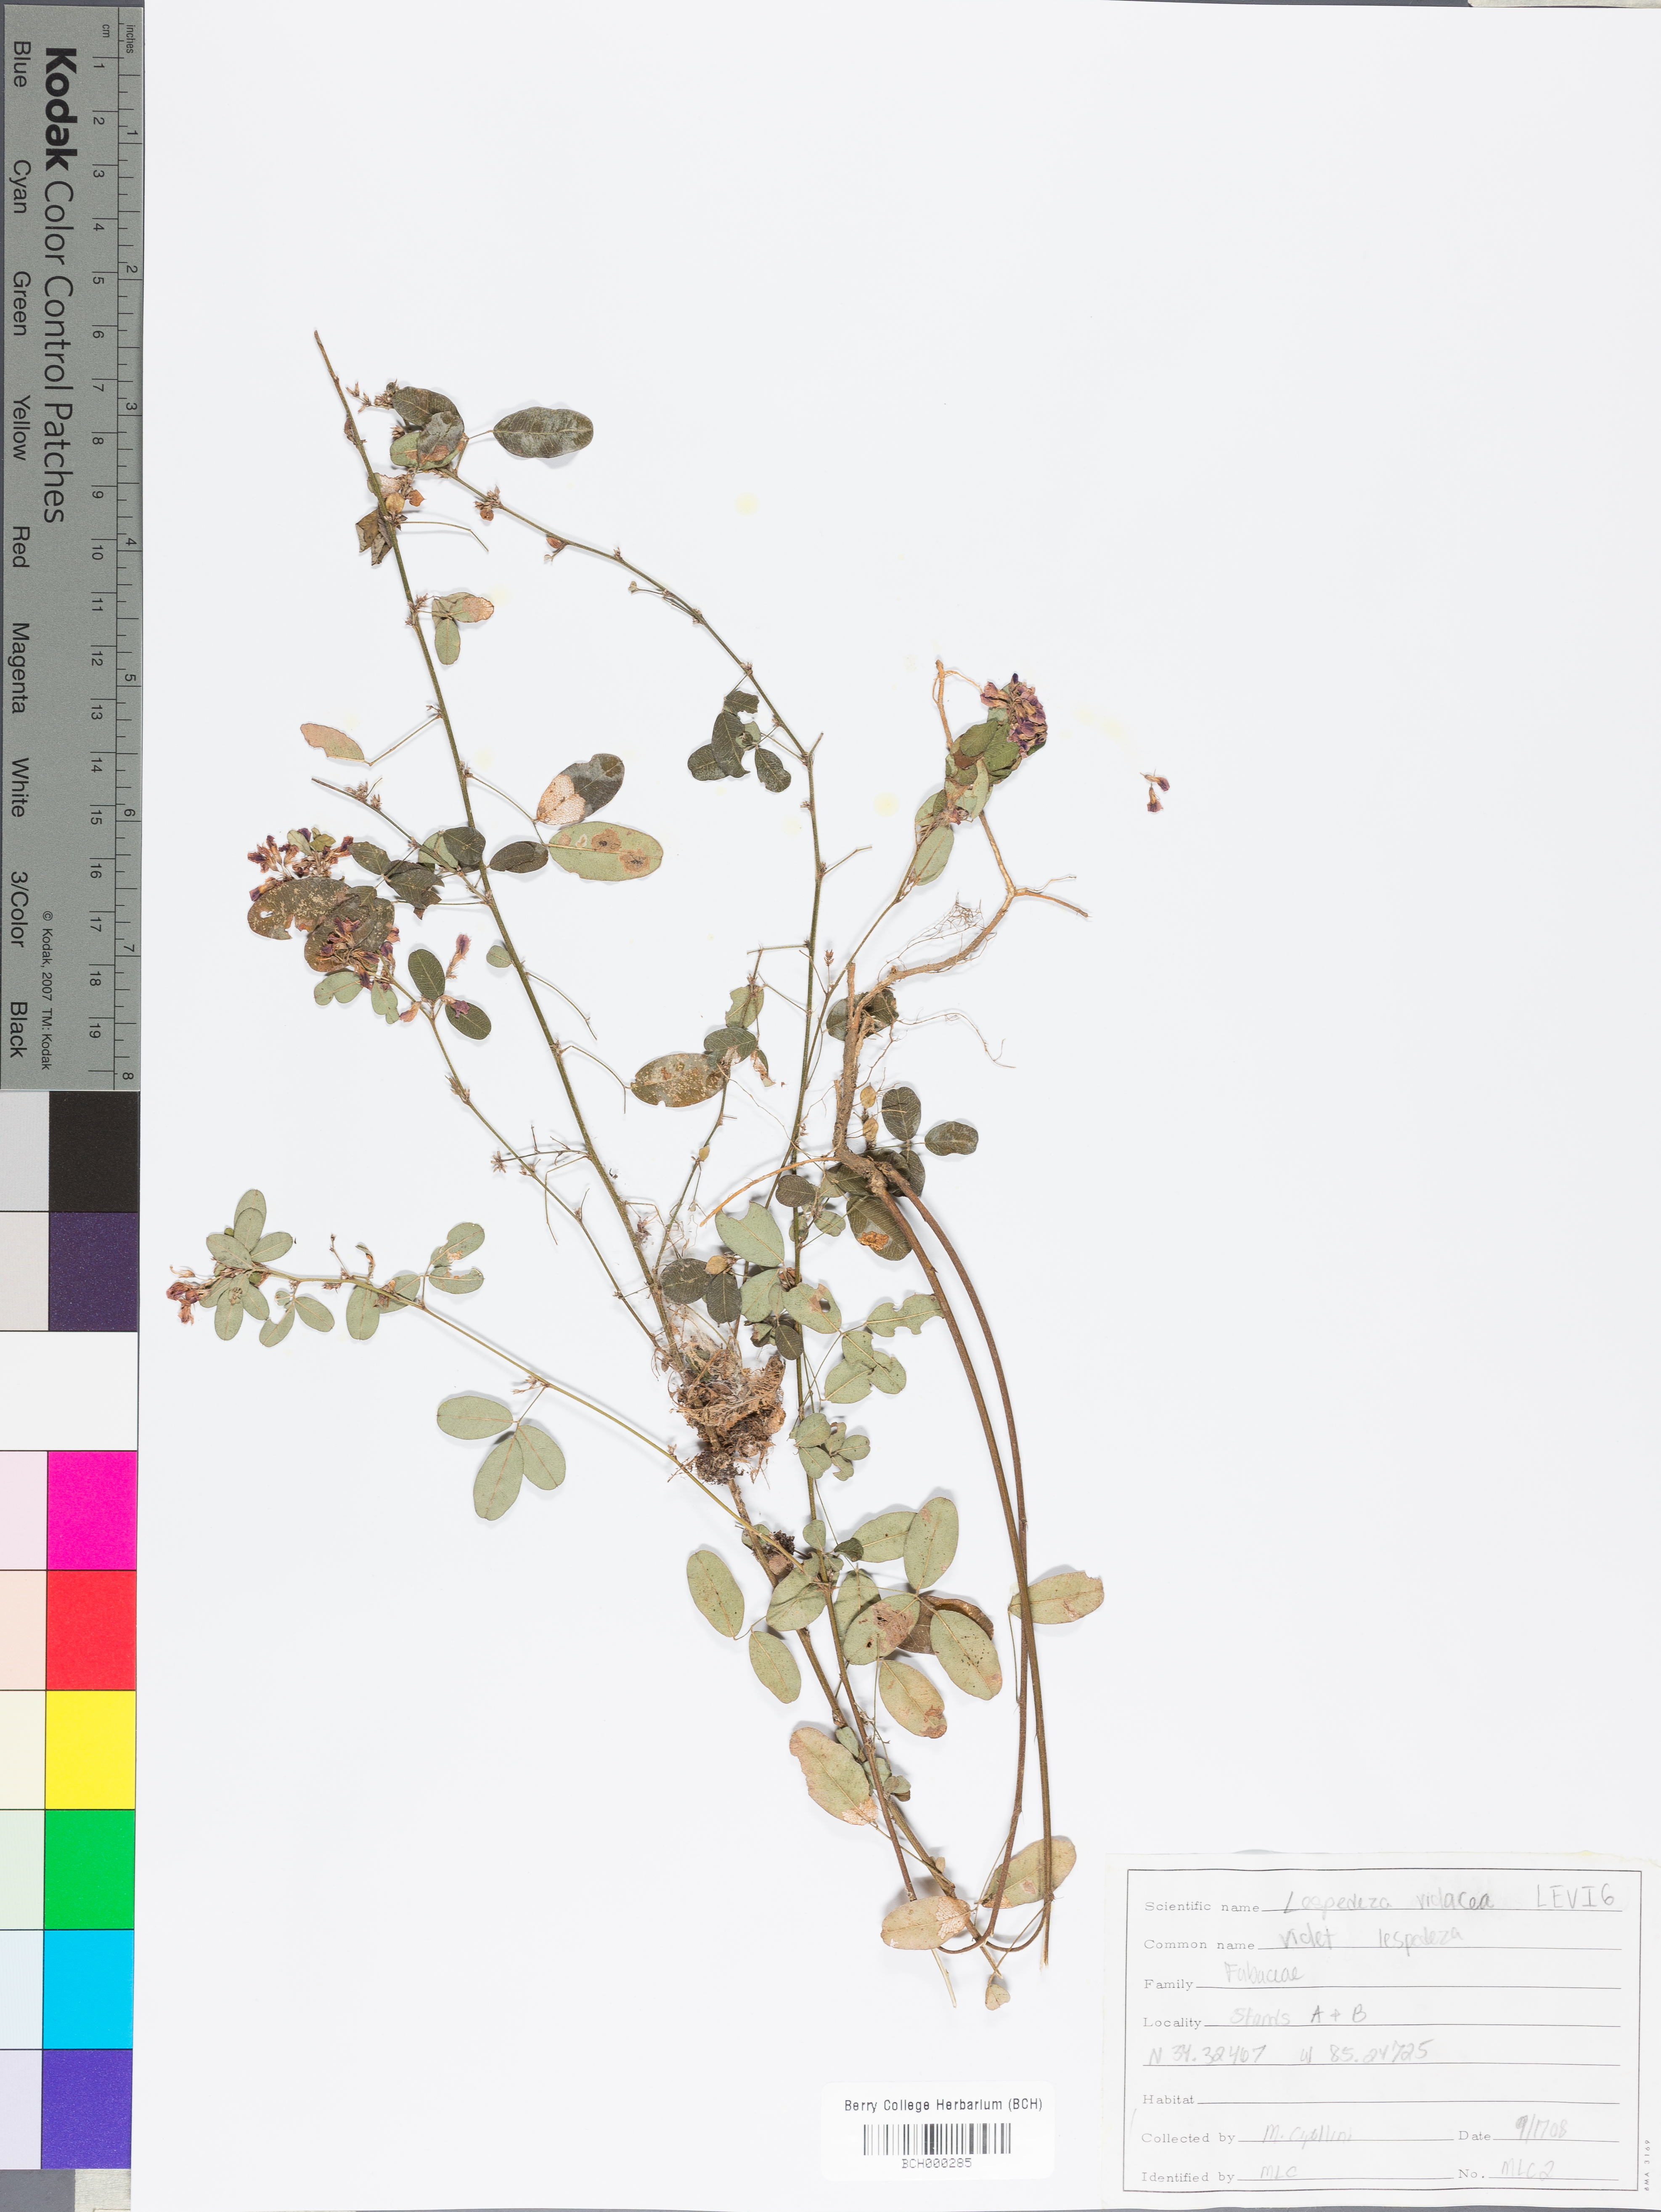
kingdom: Plantae
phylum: Tracheophyta
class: Magnoliopsida
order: Fabales
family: Fabaceae
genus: Lespedeza
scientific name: Lespedeza violacea
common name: Wand bush-clover
